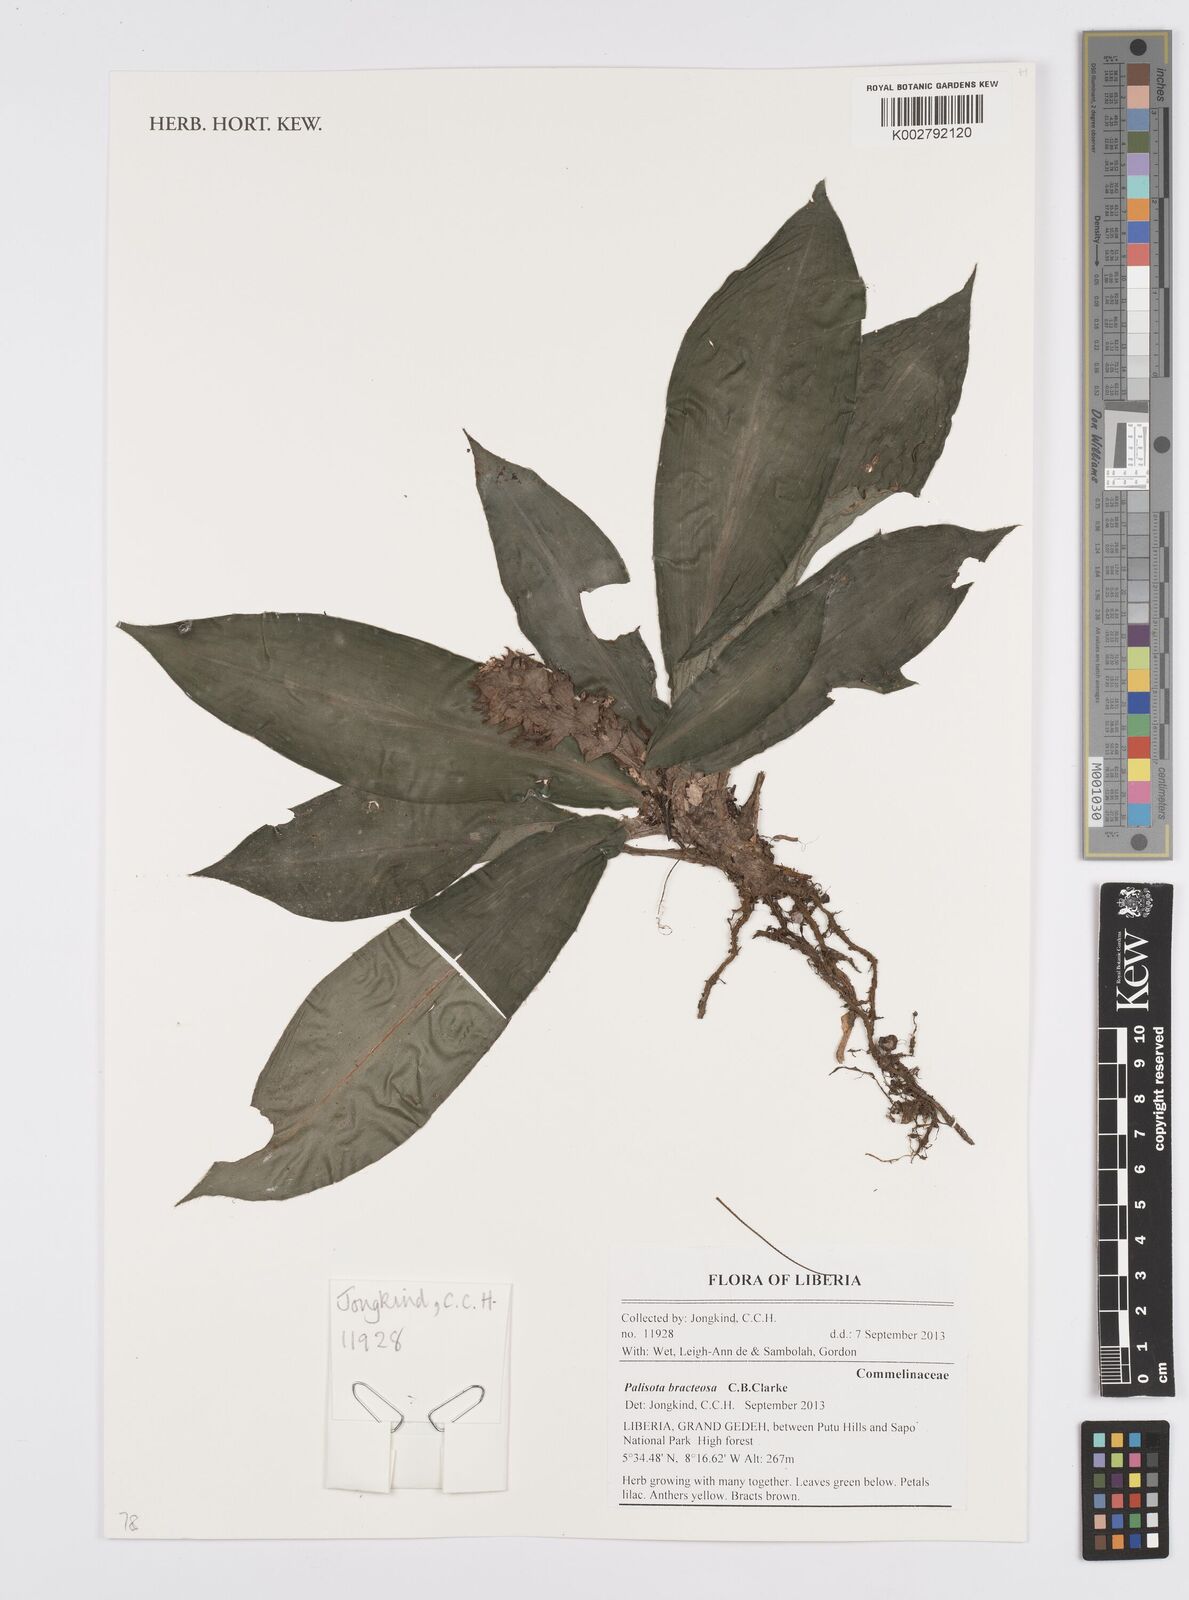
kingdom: Plantae
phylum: Tracheophyta
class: Liliopsida
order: Commelinales
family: Commelinaceae
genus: Palisota
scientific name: Palisota bracteosa
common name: Palisota
